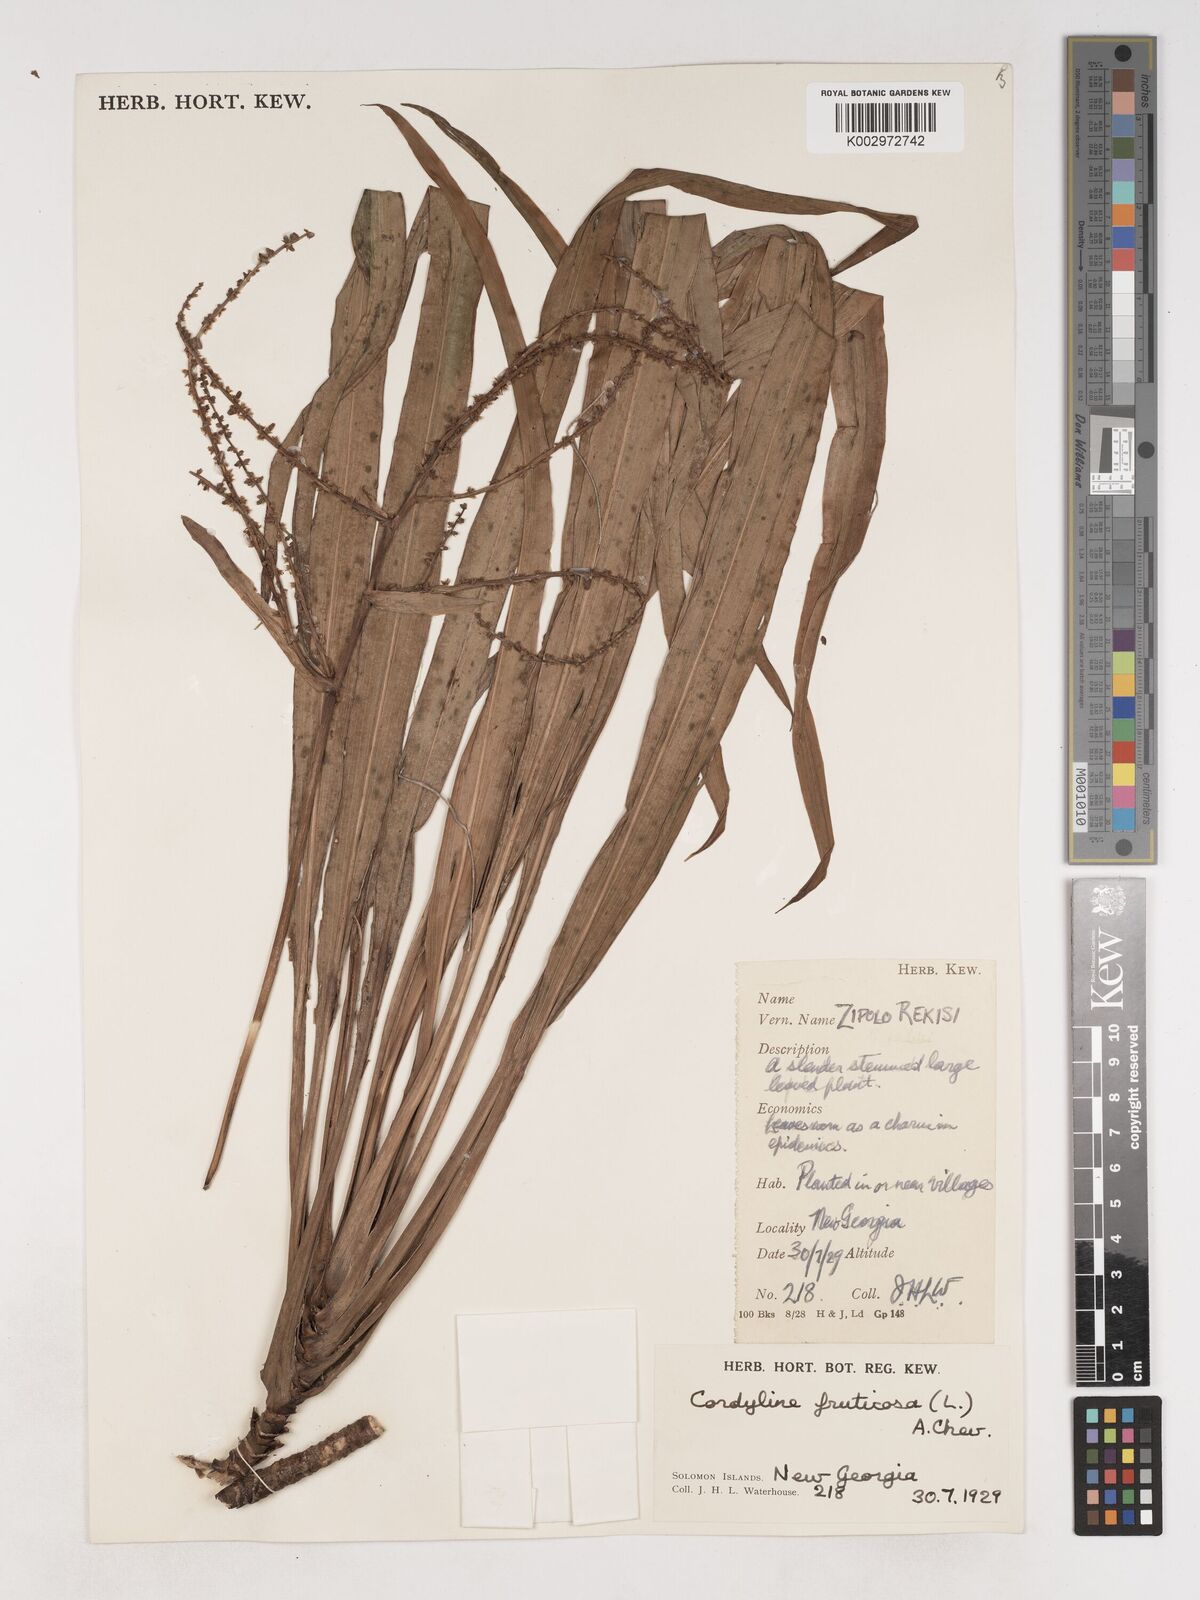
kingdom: Plantae
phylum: Tracheophyta
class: Liliopsida
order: Asparagales
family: Asparagaceae
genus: Cordyline
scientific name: Cordyline fruticosa
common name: Good-luck-plant
